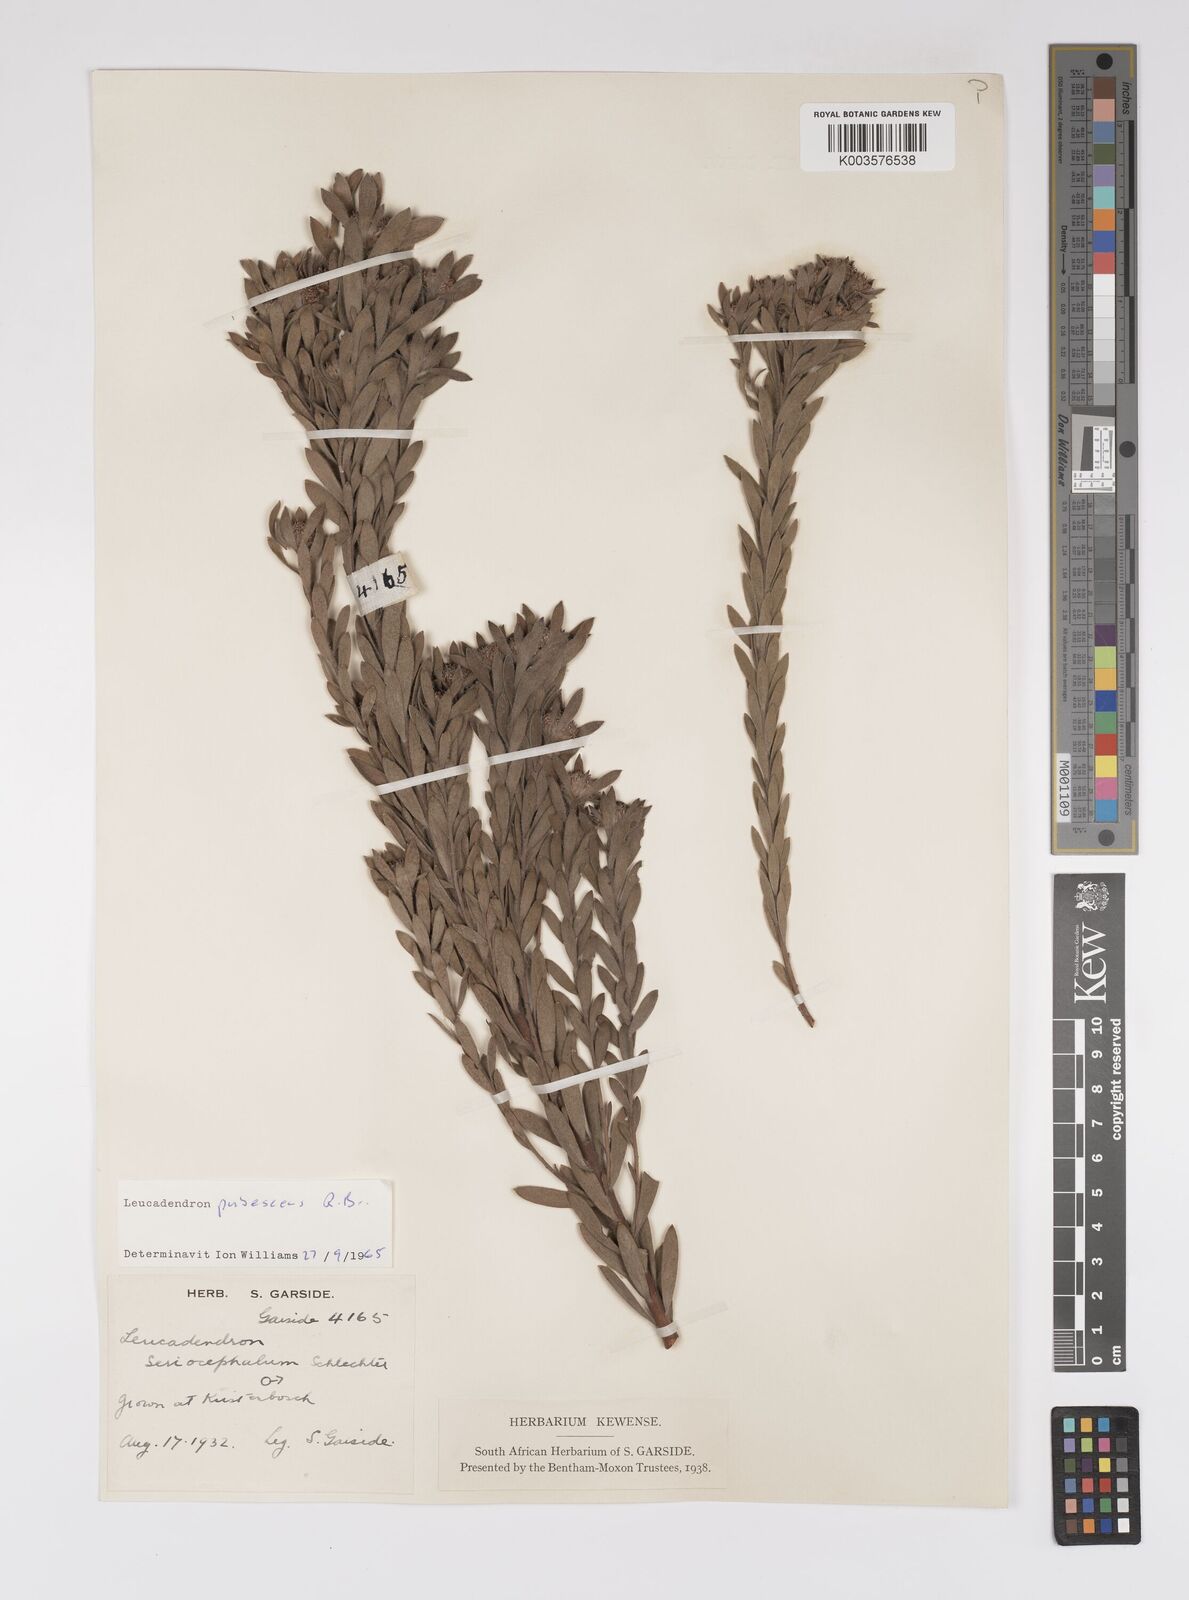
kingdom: Plantae
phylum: Tracheophyta
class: Magnoliopsida
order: Proteales
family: Proteaceae
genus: Leucadendron
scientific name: Leucadendron pubescens
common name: Grey conebush
